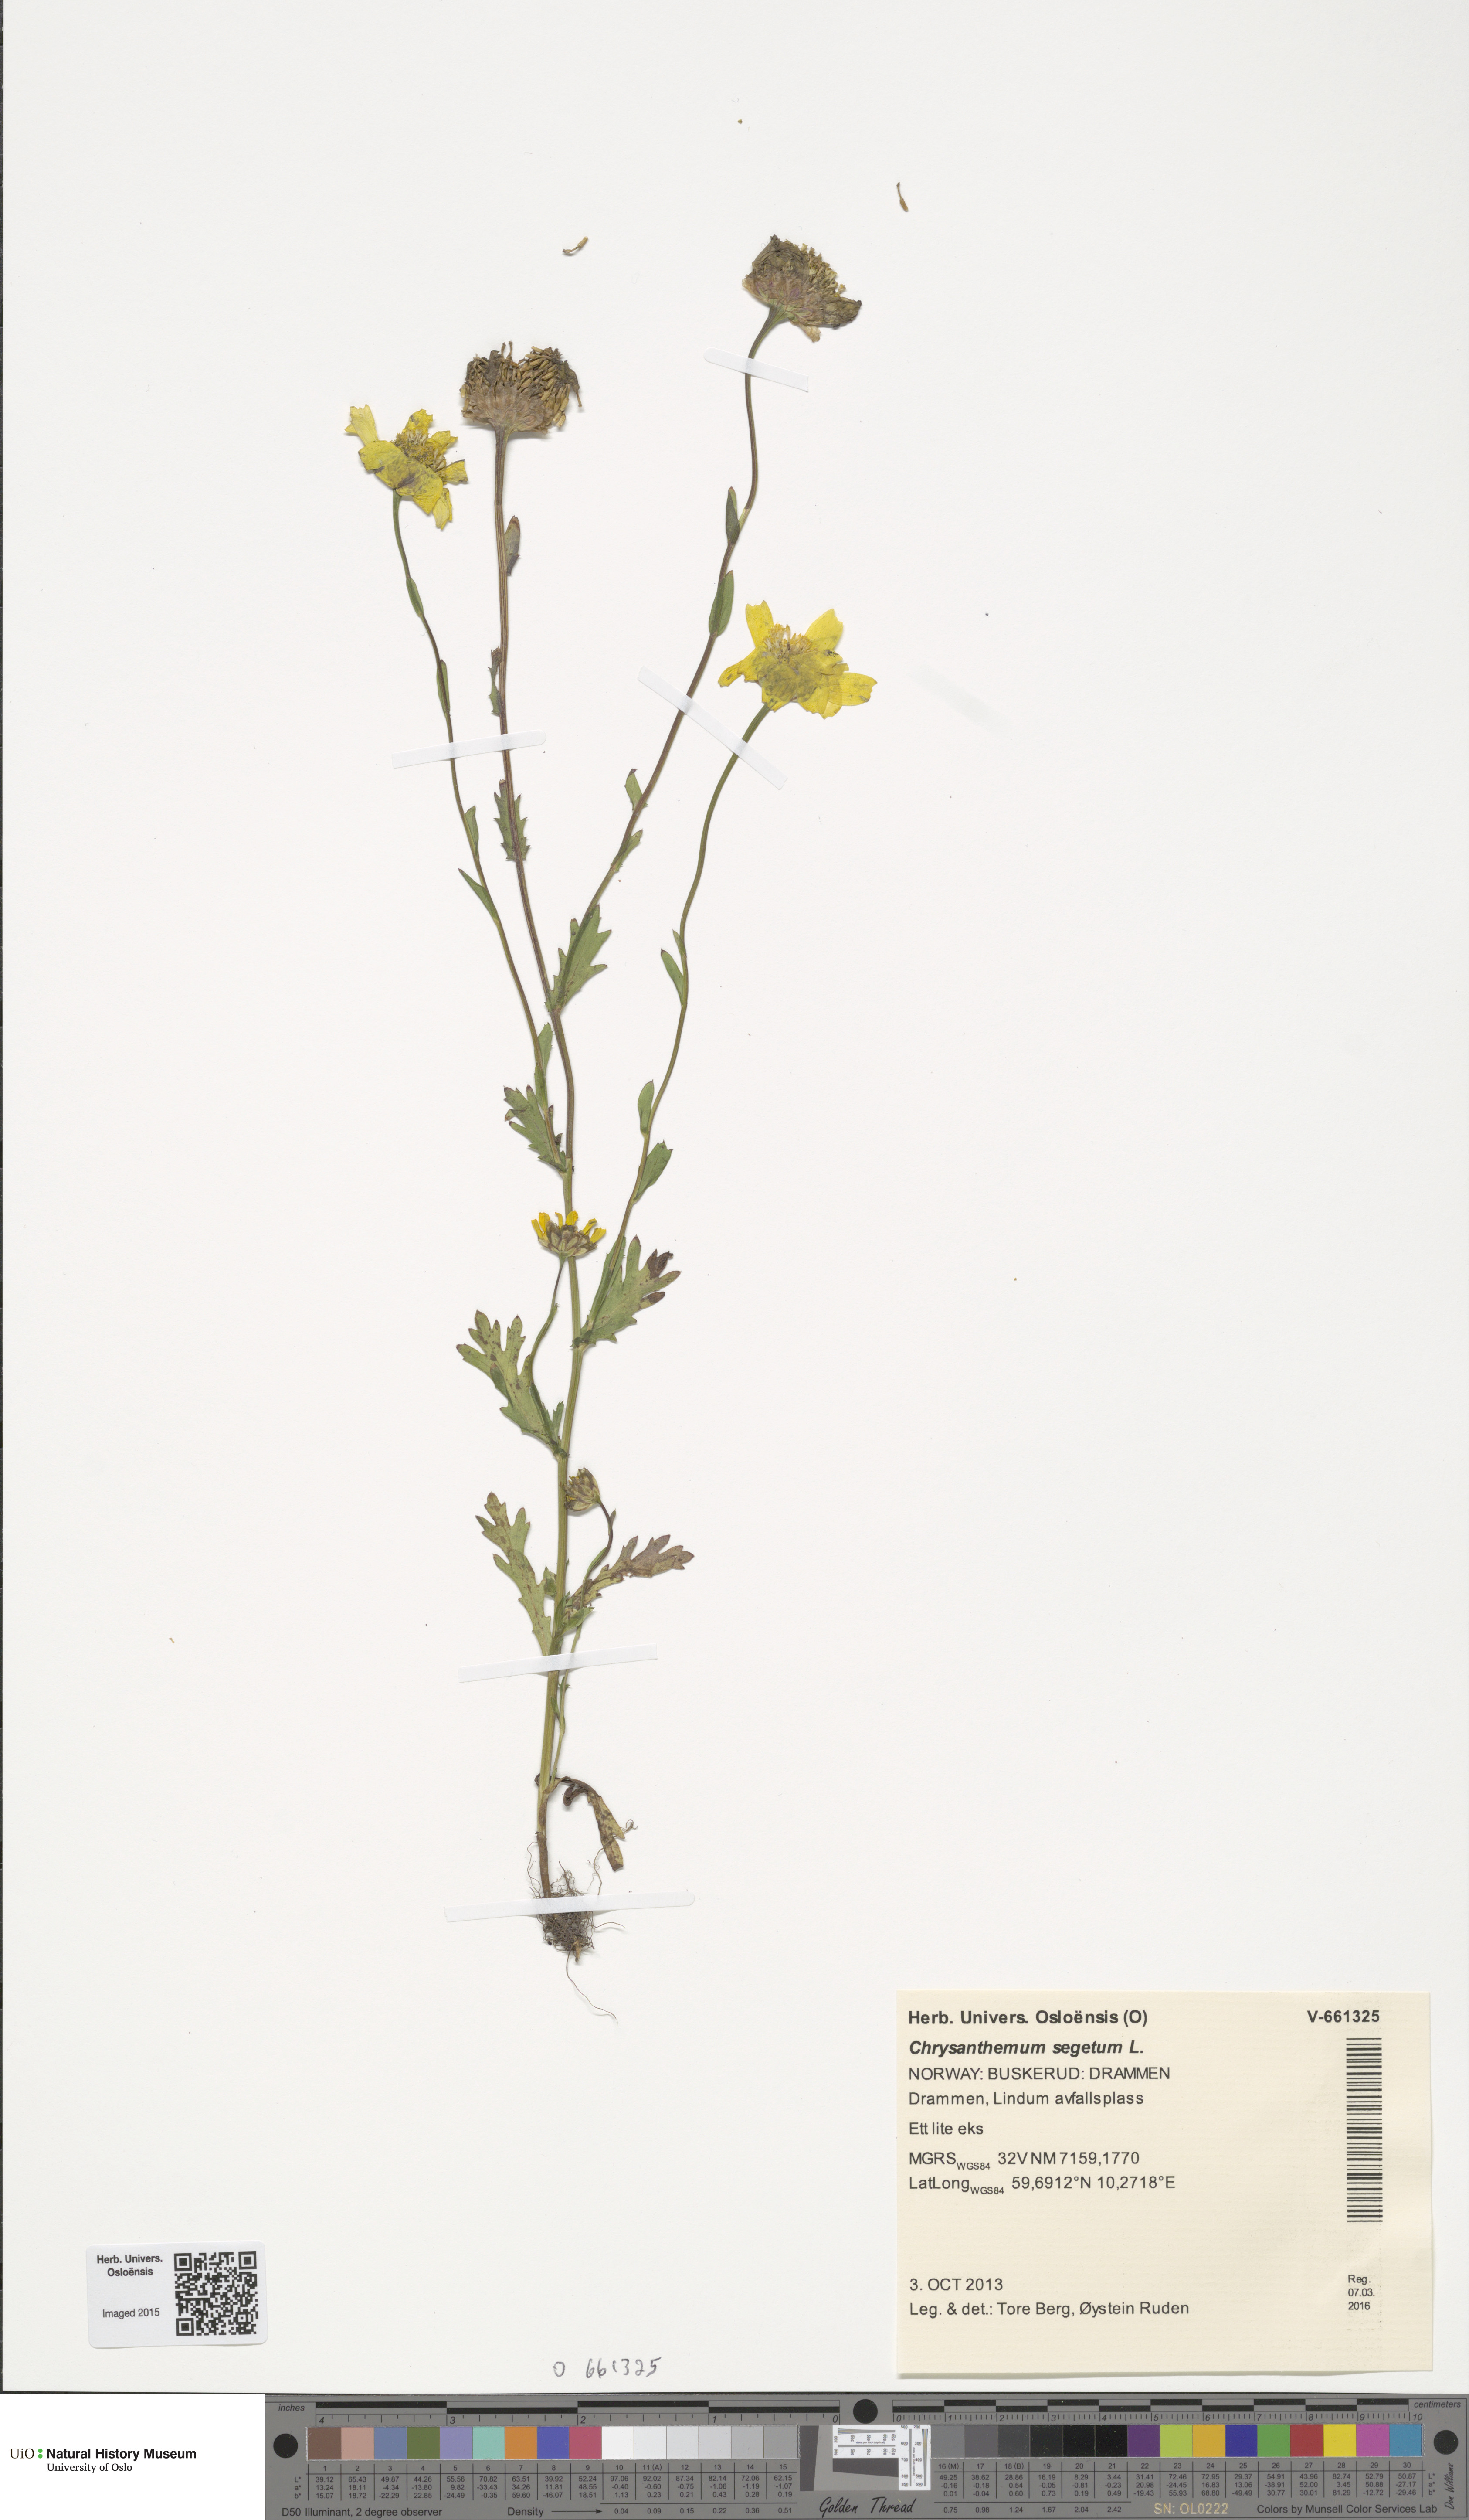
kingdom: Plantae
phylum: Tracheophyta
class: Magnoliopsida
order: Asterales
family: Asteraceae
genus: Glebionis
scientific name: Glebionis segetum
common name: Corndaisy
